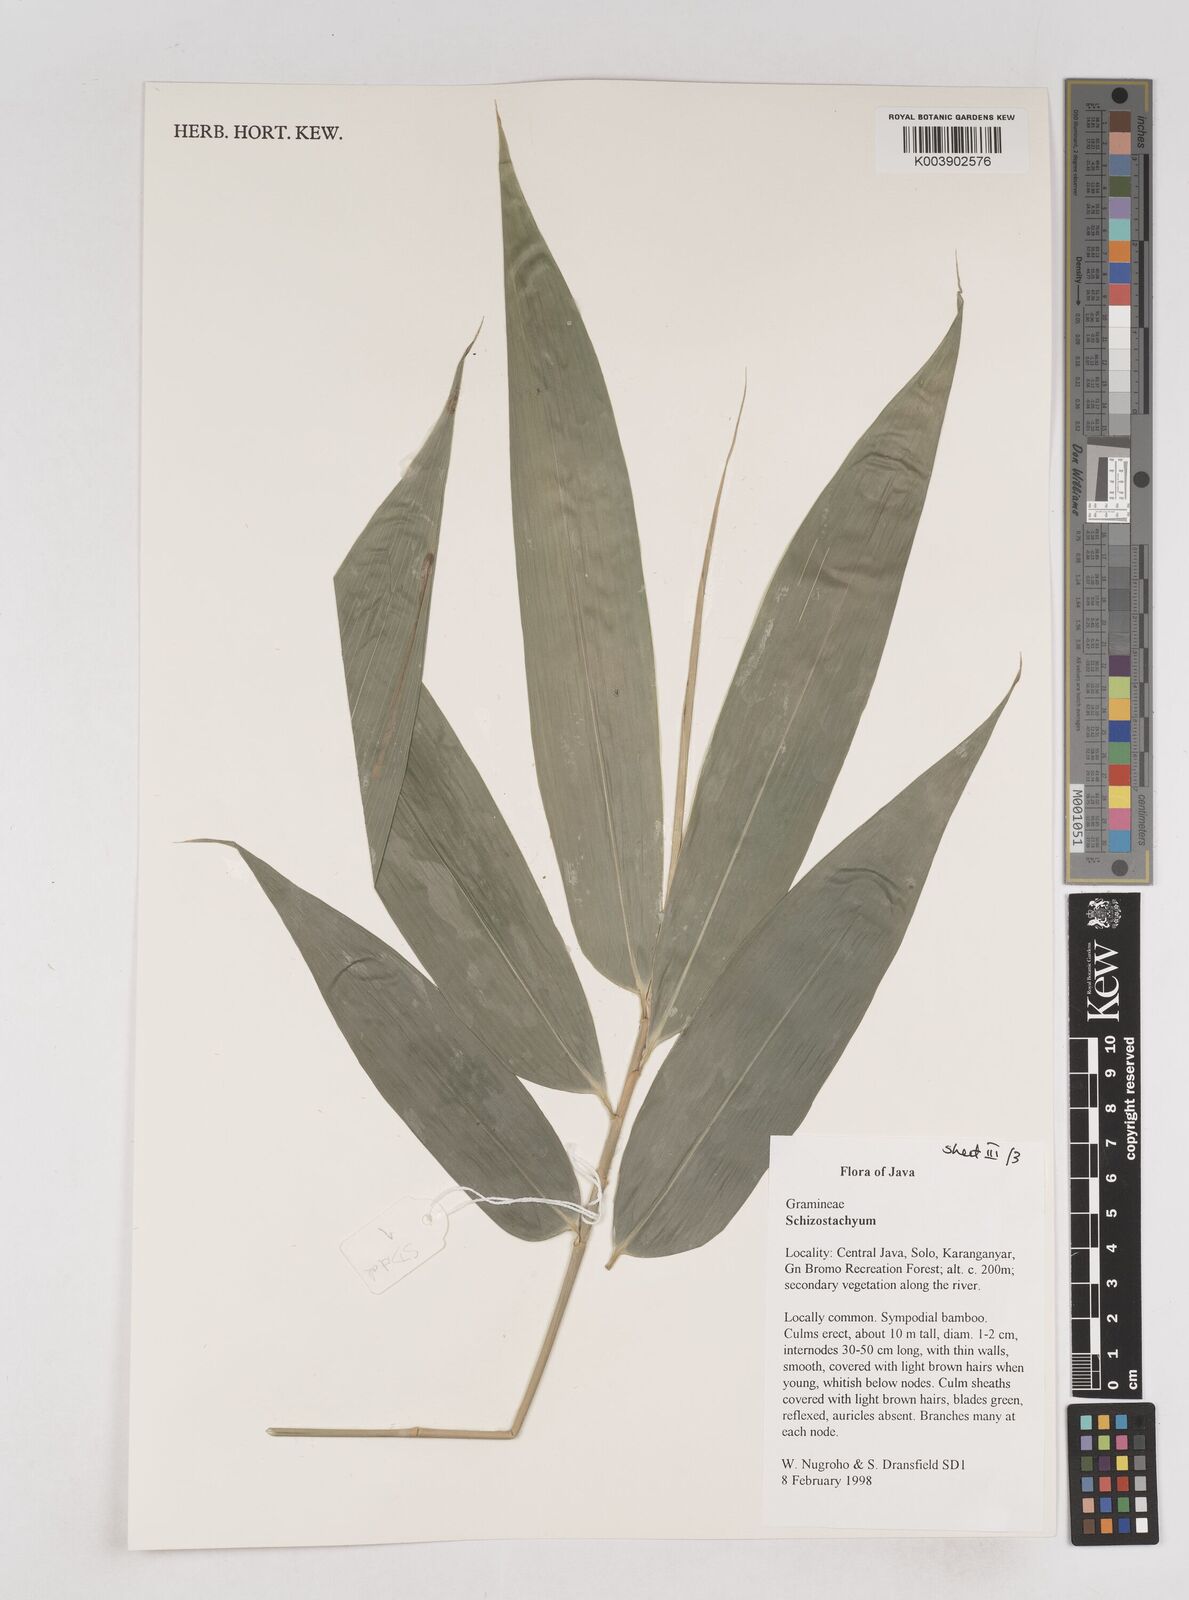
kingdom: Plantae
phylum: Tracheophyta
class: Liliopsida
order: Poales
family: Poaceae
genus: Schizostachyum
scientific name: Schizostachyum
